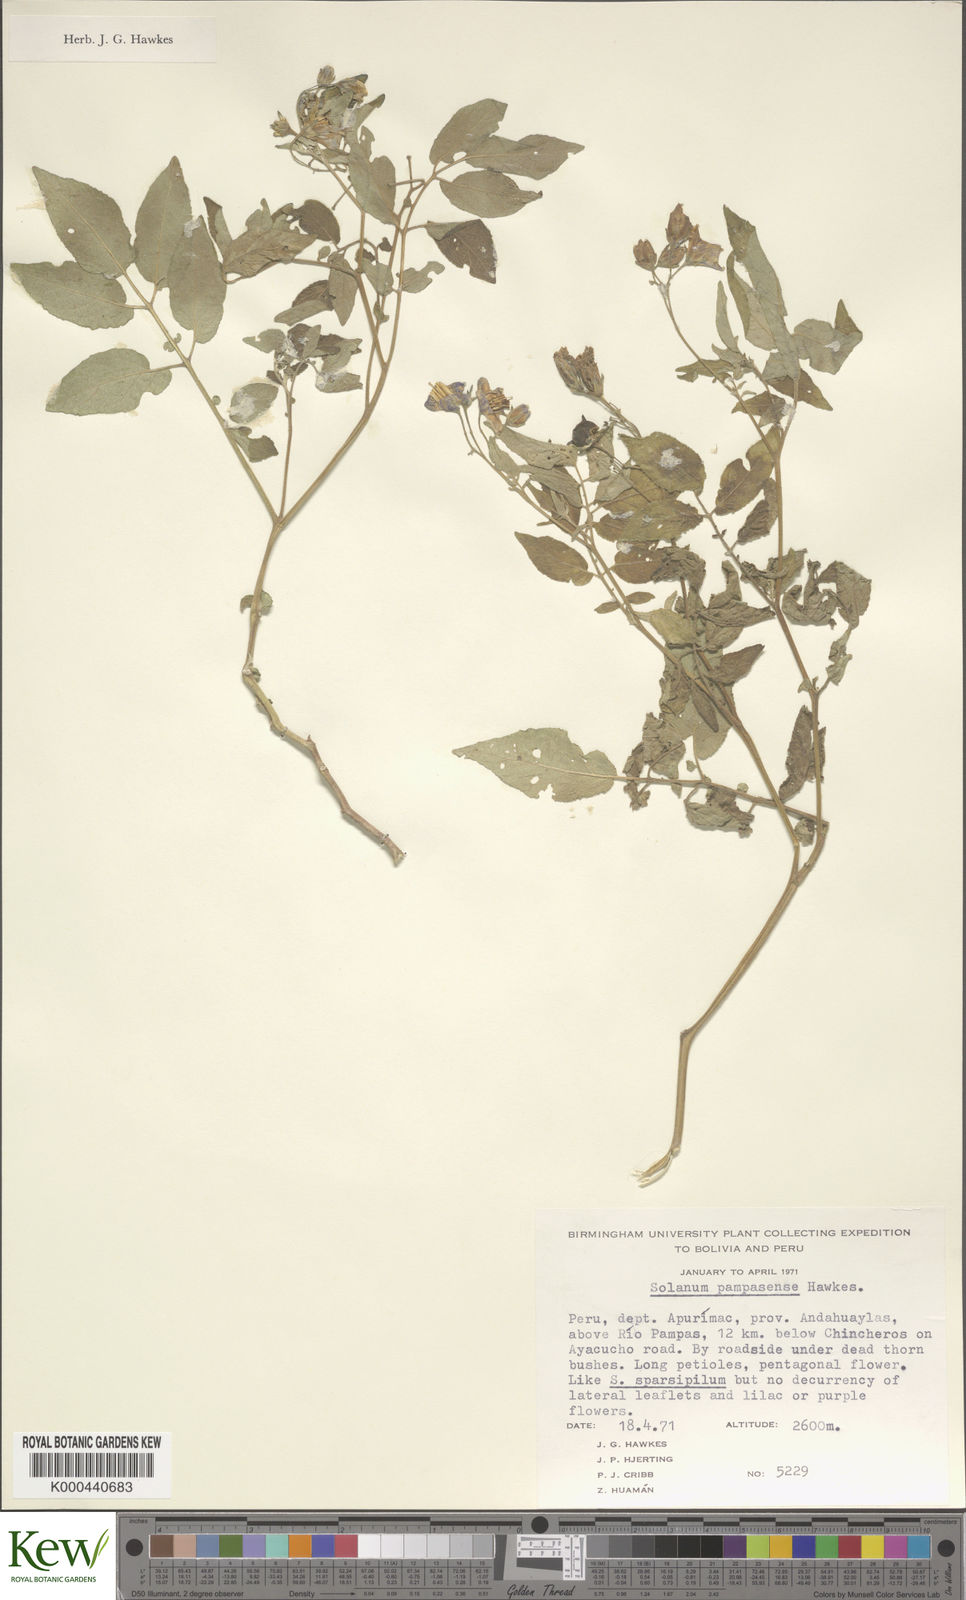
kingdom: Plantae
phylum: Tracheophyta
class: Magnoliopsida
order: Solanales
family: Solanaceae
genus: Solanum
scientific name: Solanum candolleanum
